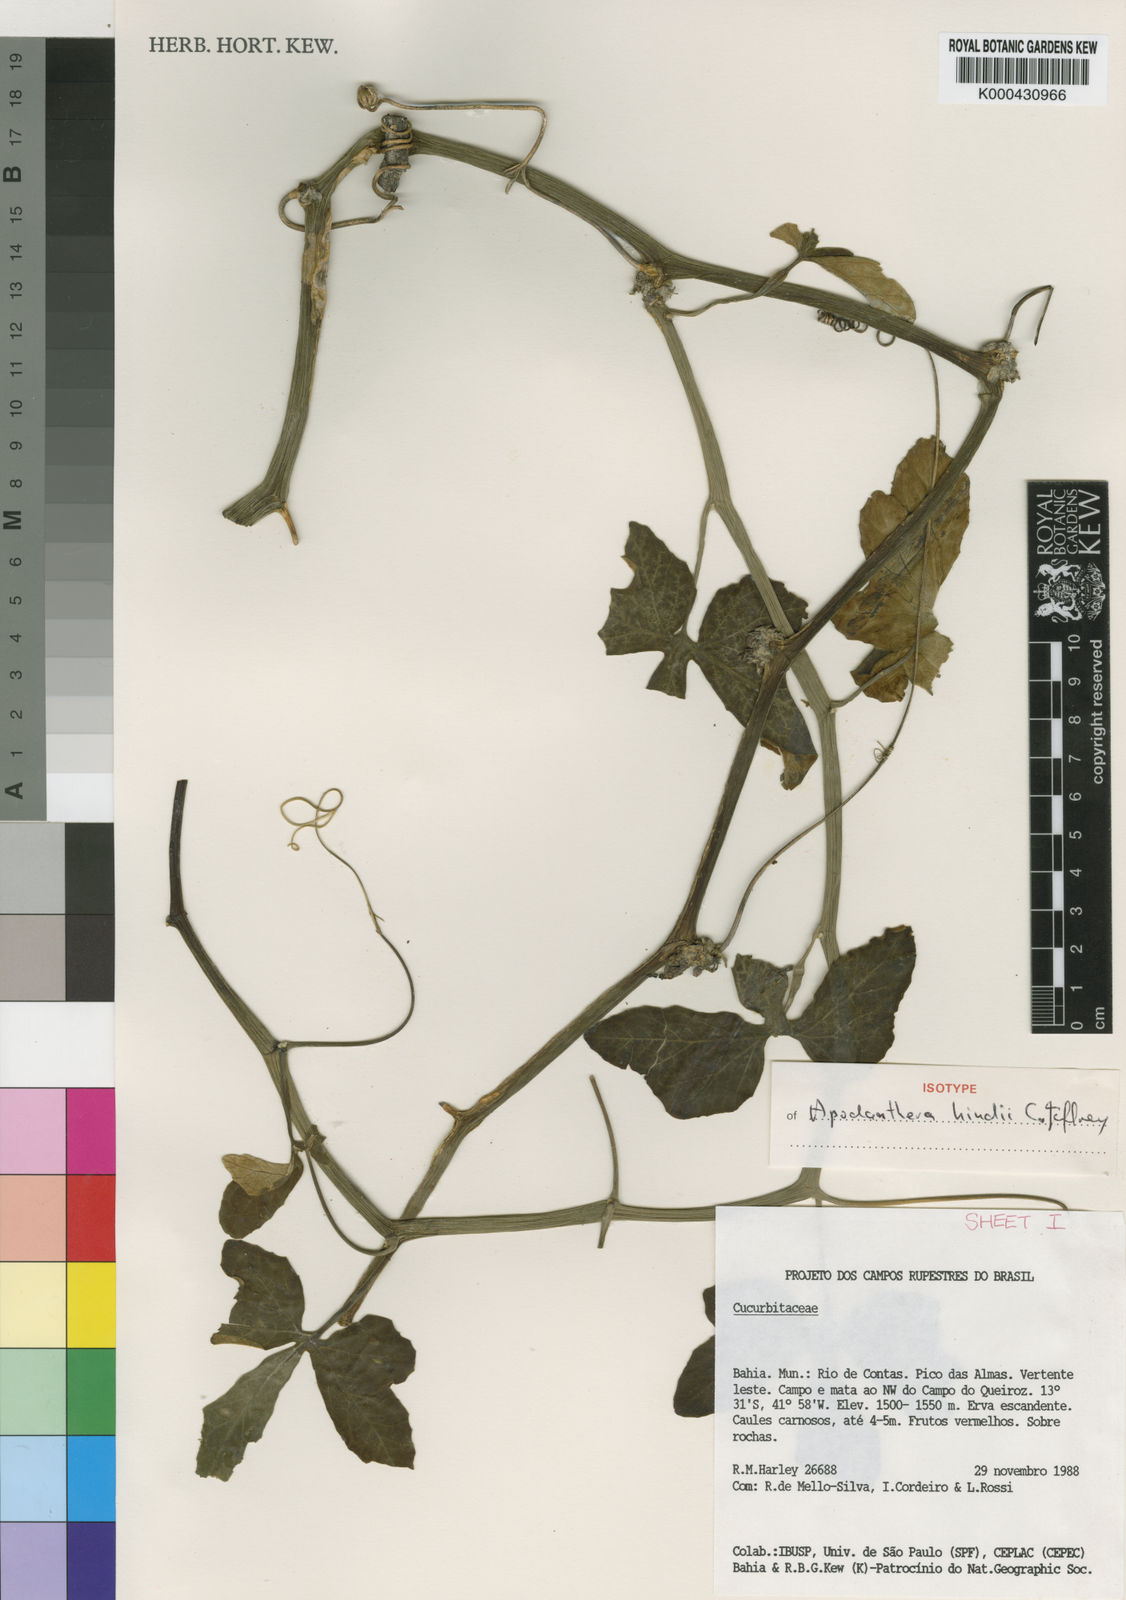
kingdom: Plantae
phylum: Tracheophyta
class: Magnoliopsida
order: Cucurbitales
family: Cucurbitaceae
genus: Apodanthera
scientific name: Apodanthera hindii
